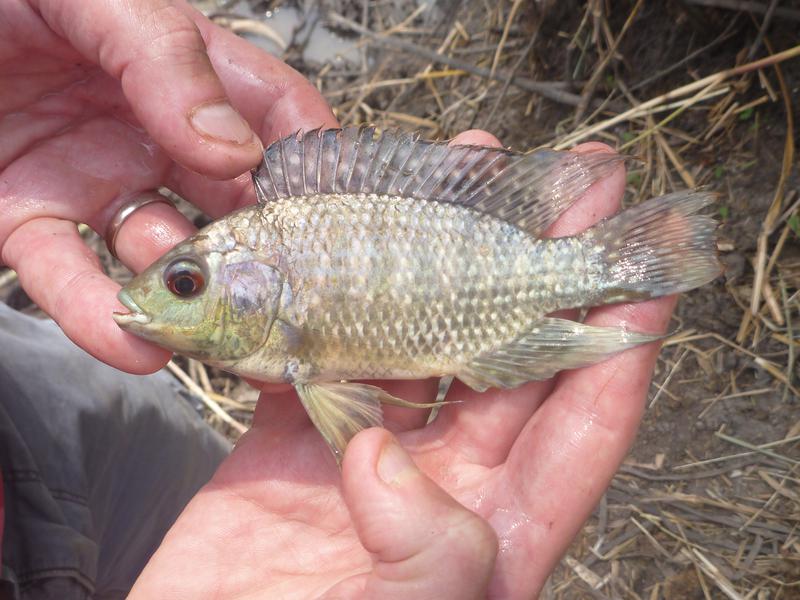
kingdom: Animalia
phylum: Chordata
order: Perciformes
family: Cichlidae
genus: Oreochromis
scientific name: Oreochromis leucostictus
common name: Blue spotted tilapia
